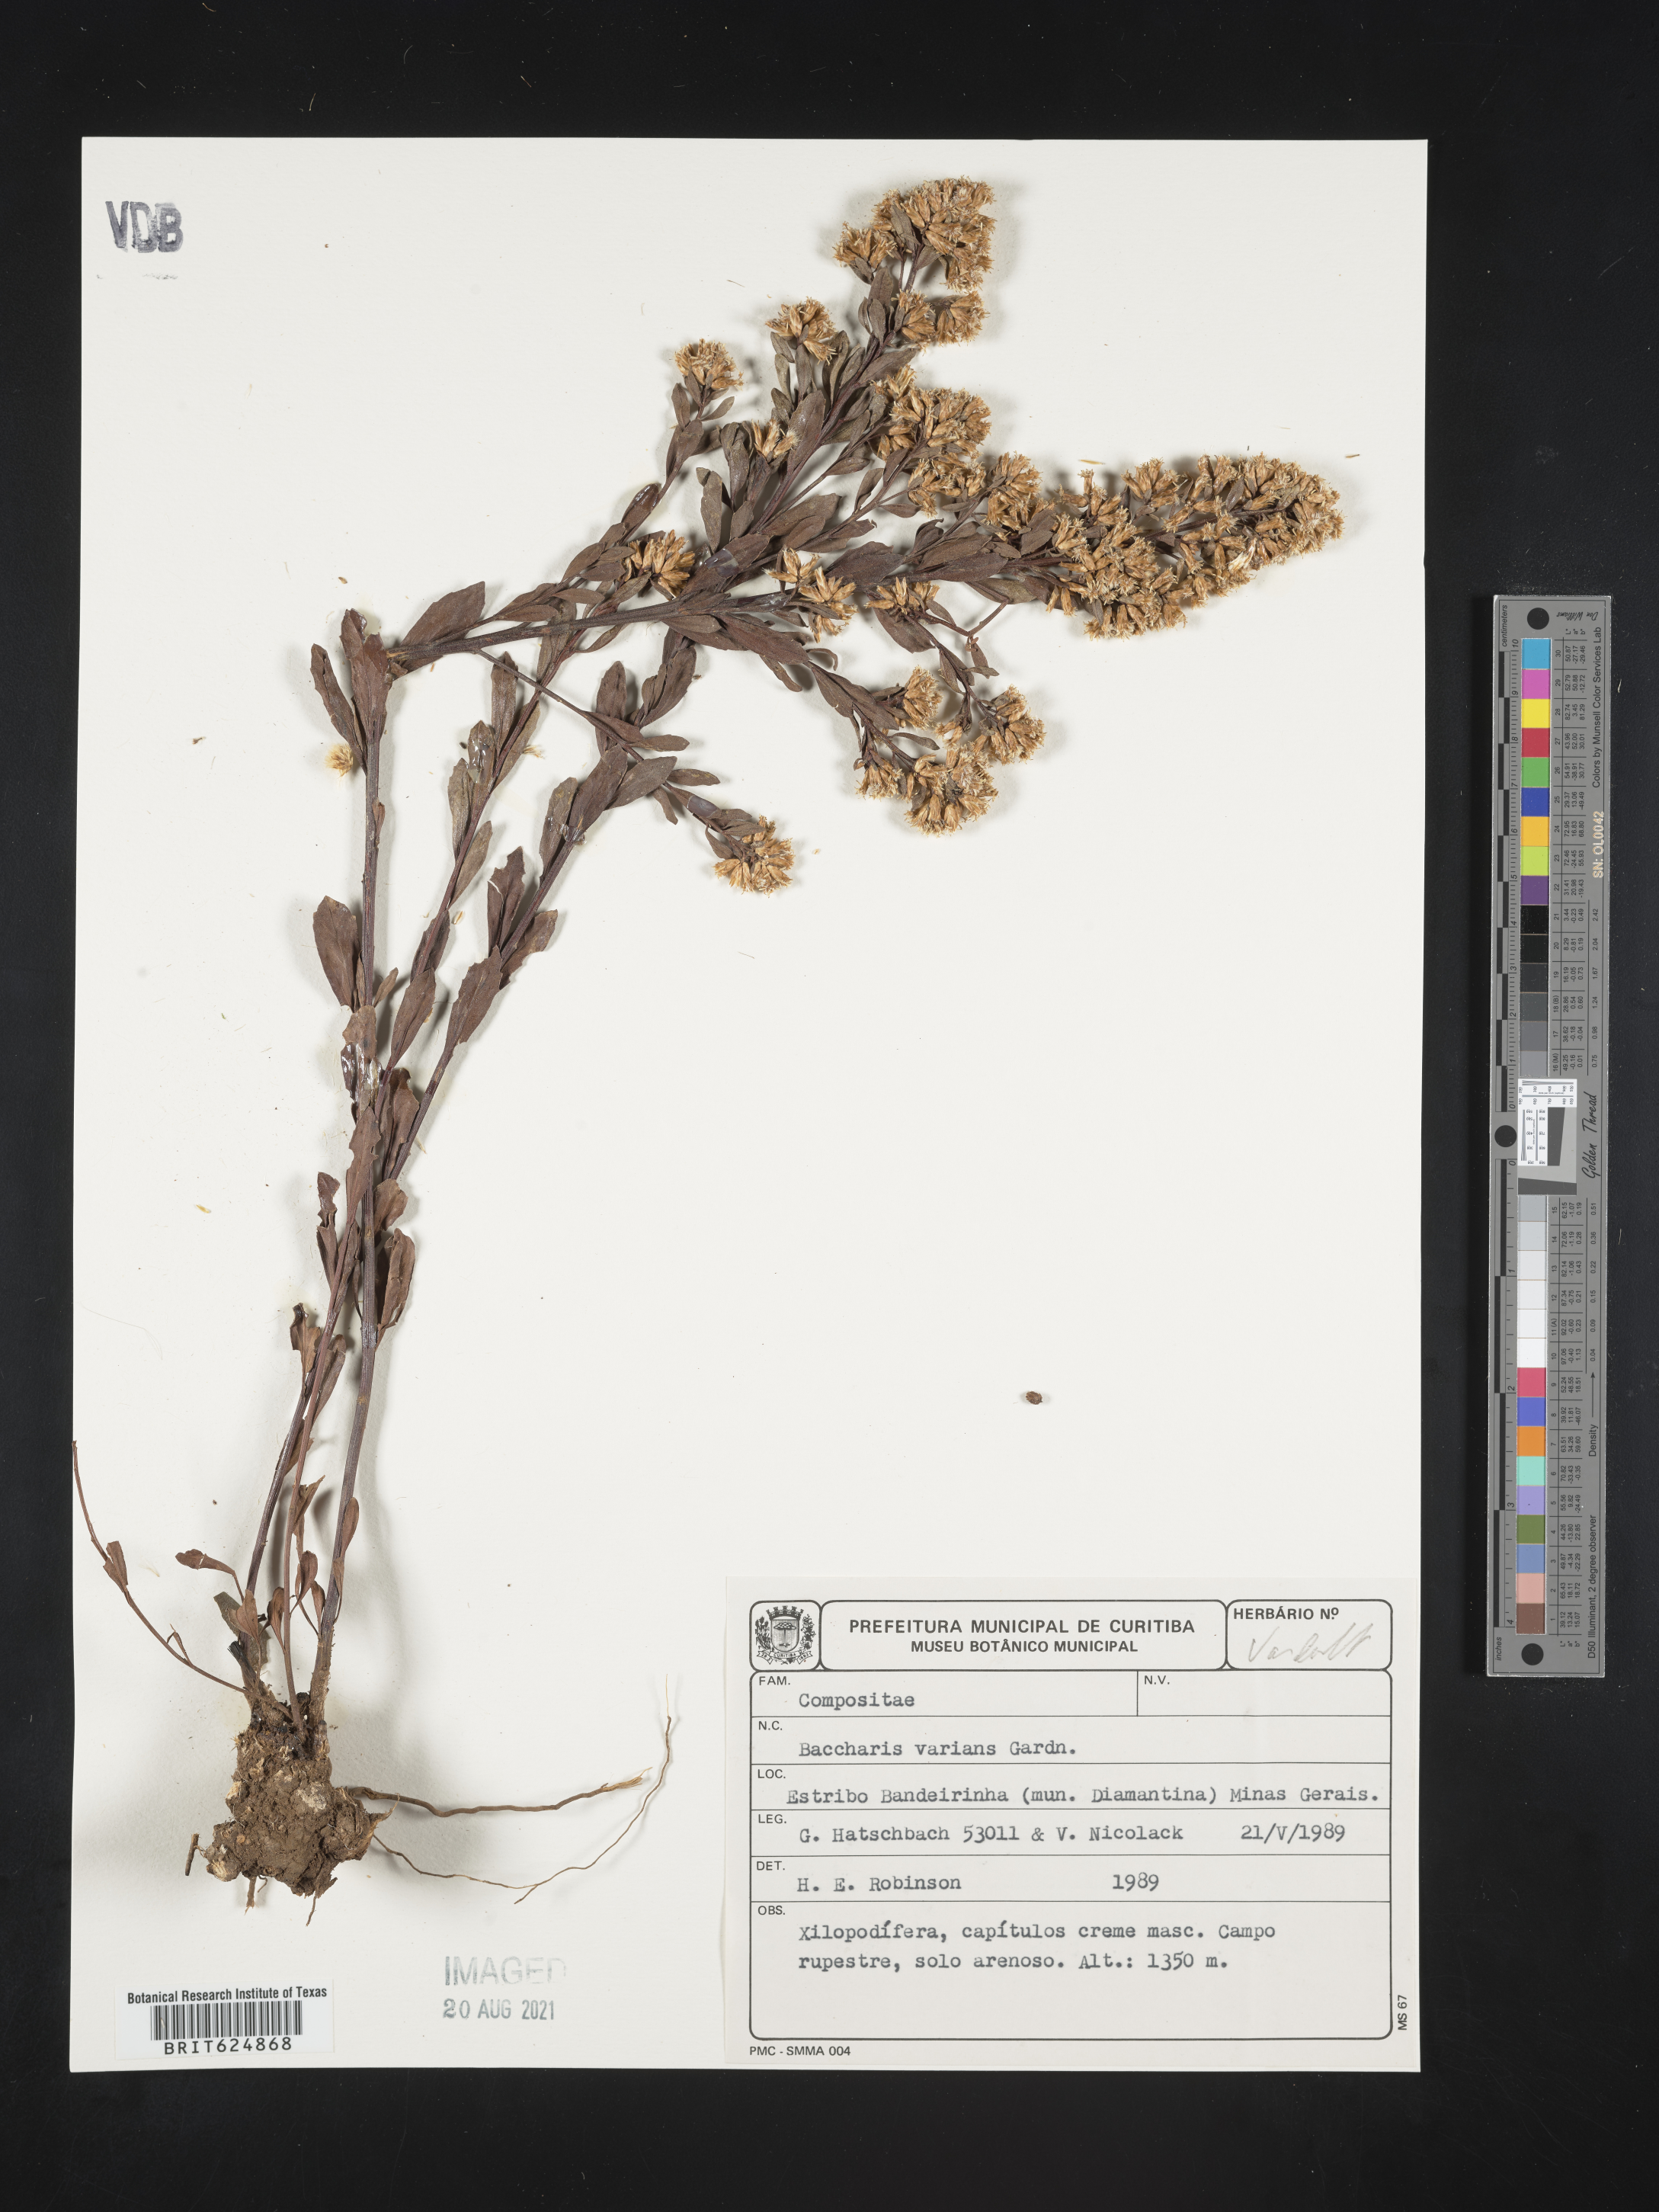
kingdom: Plantae
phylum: Tracheophyta
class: Magnoliopsida
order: Asterales
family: Asteraceae
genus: Baccharis
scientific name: Baccharis varians
